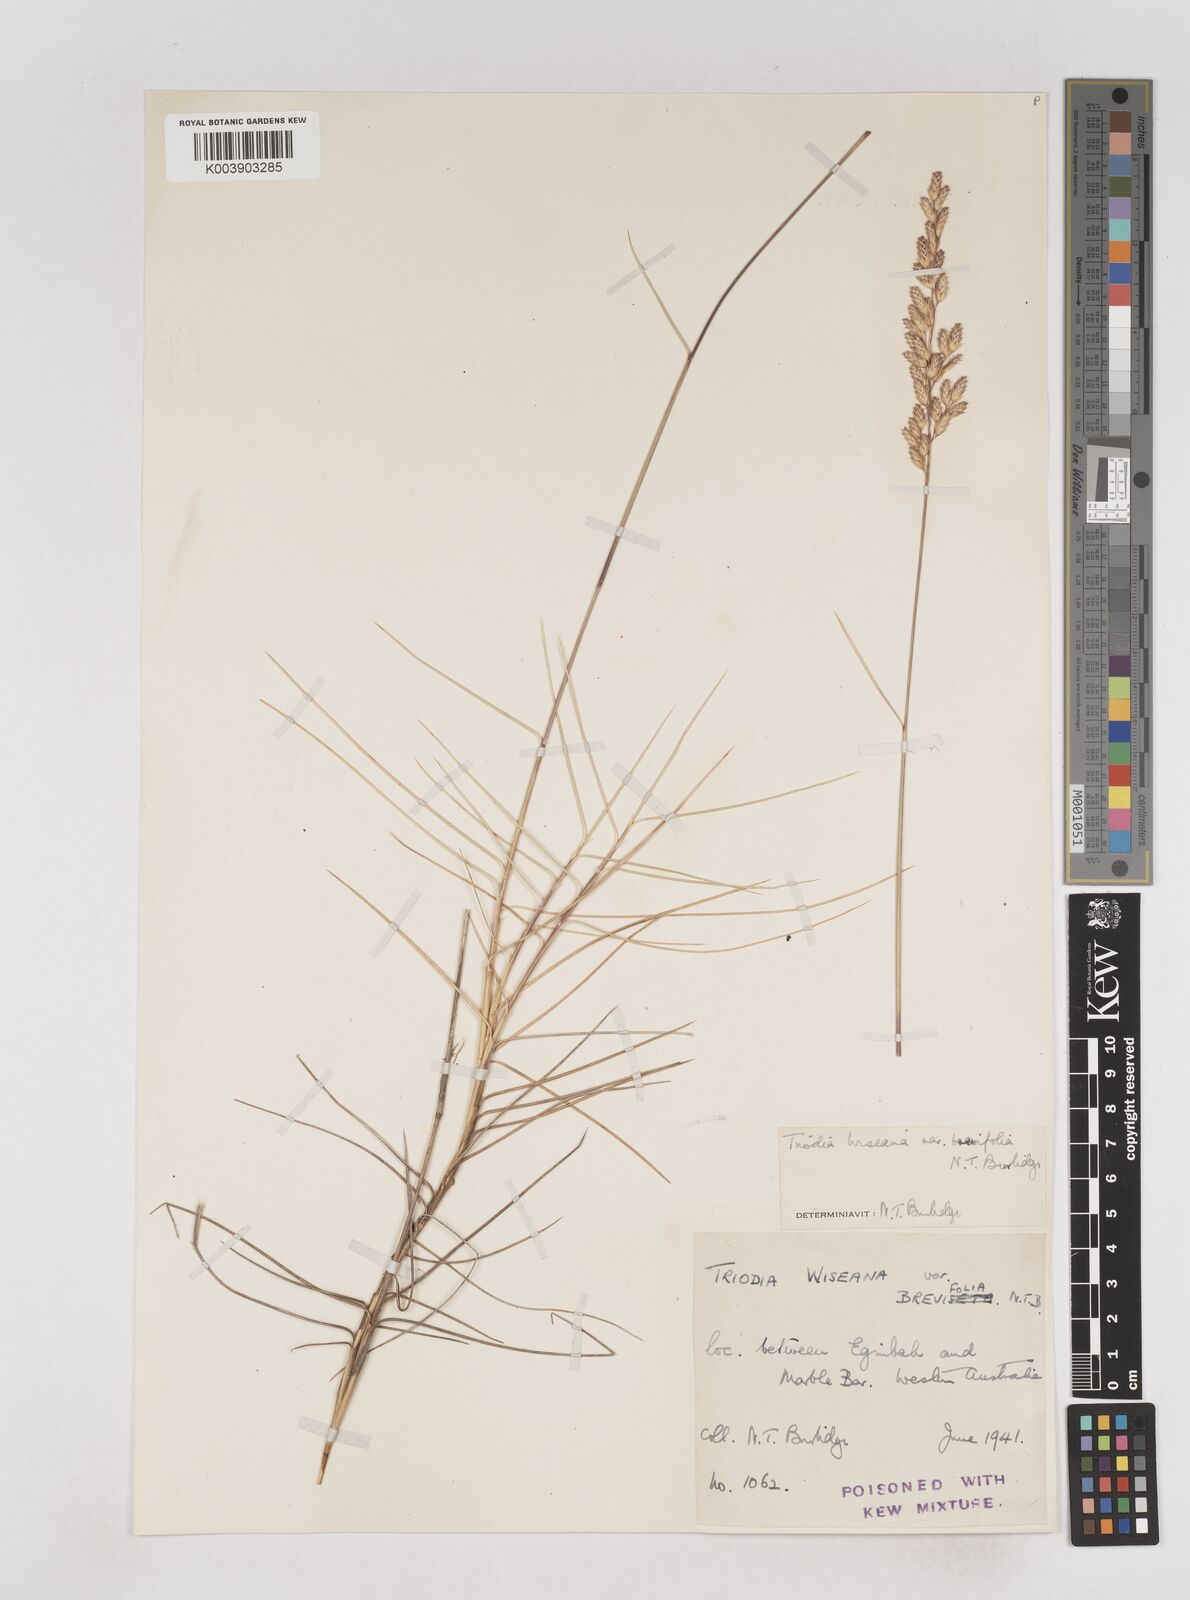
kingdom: Plantae
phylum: Tracheophyta
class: Liliopsida
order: Poales
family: Poaceae
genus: Triodia
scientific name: Triodia wiseana
